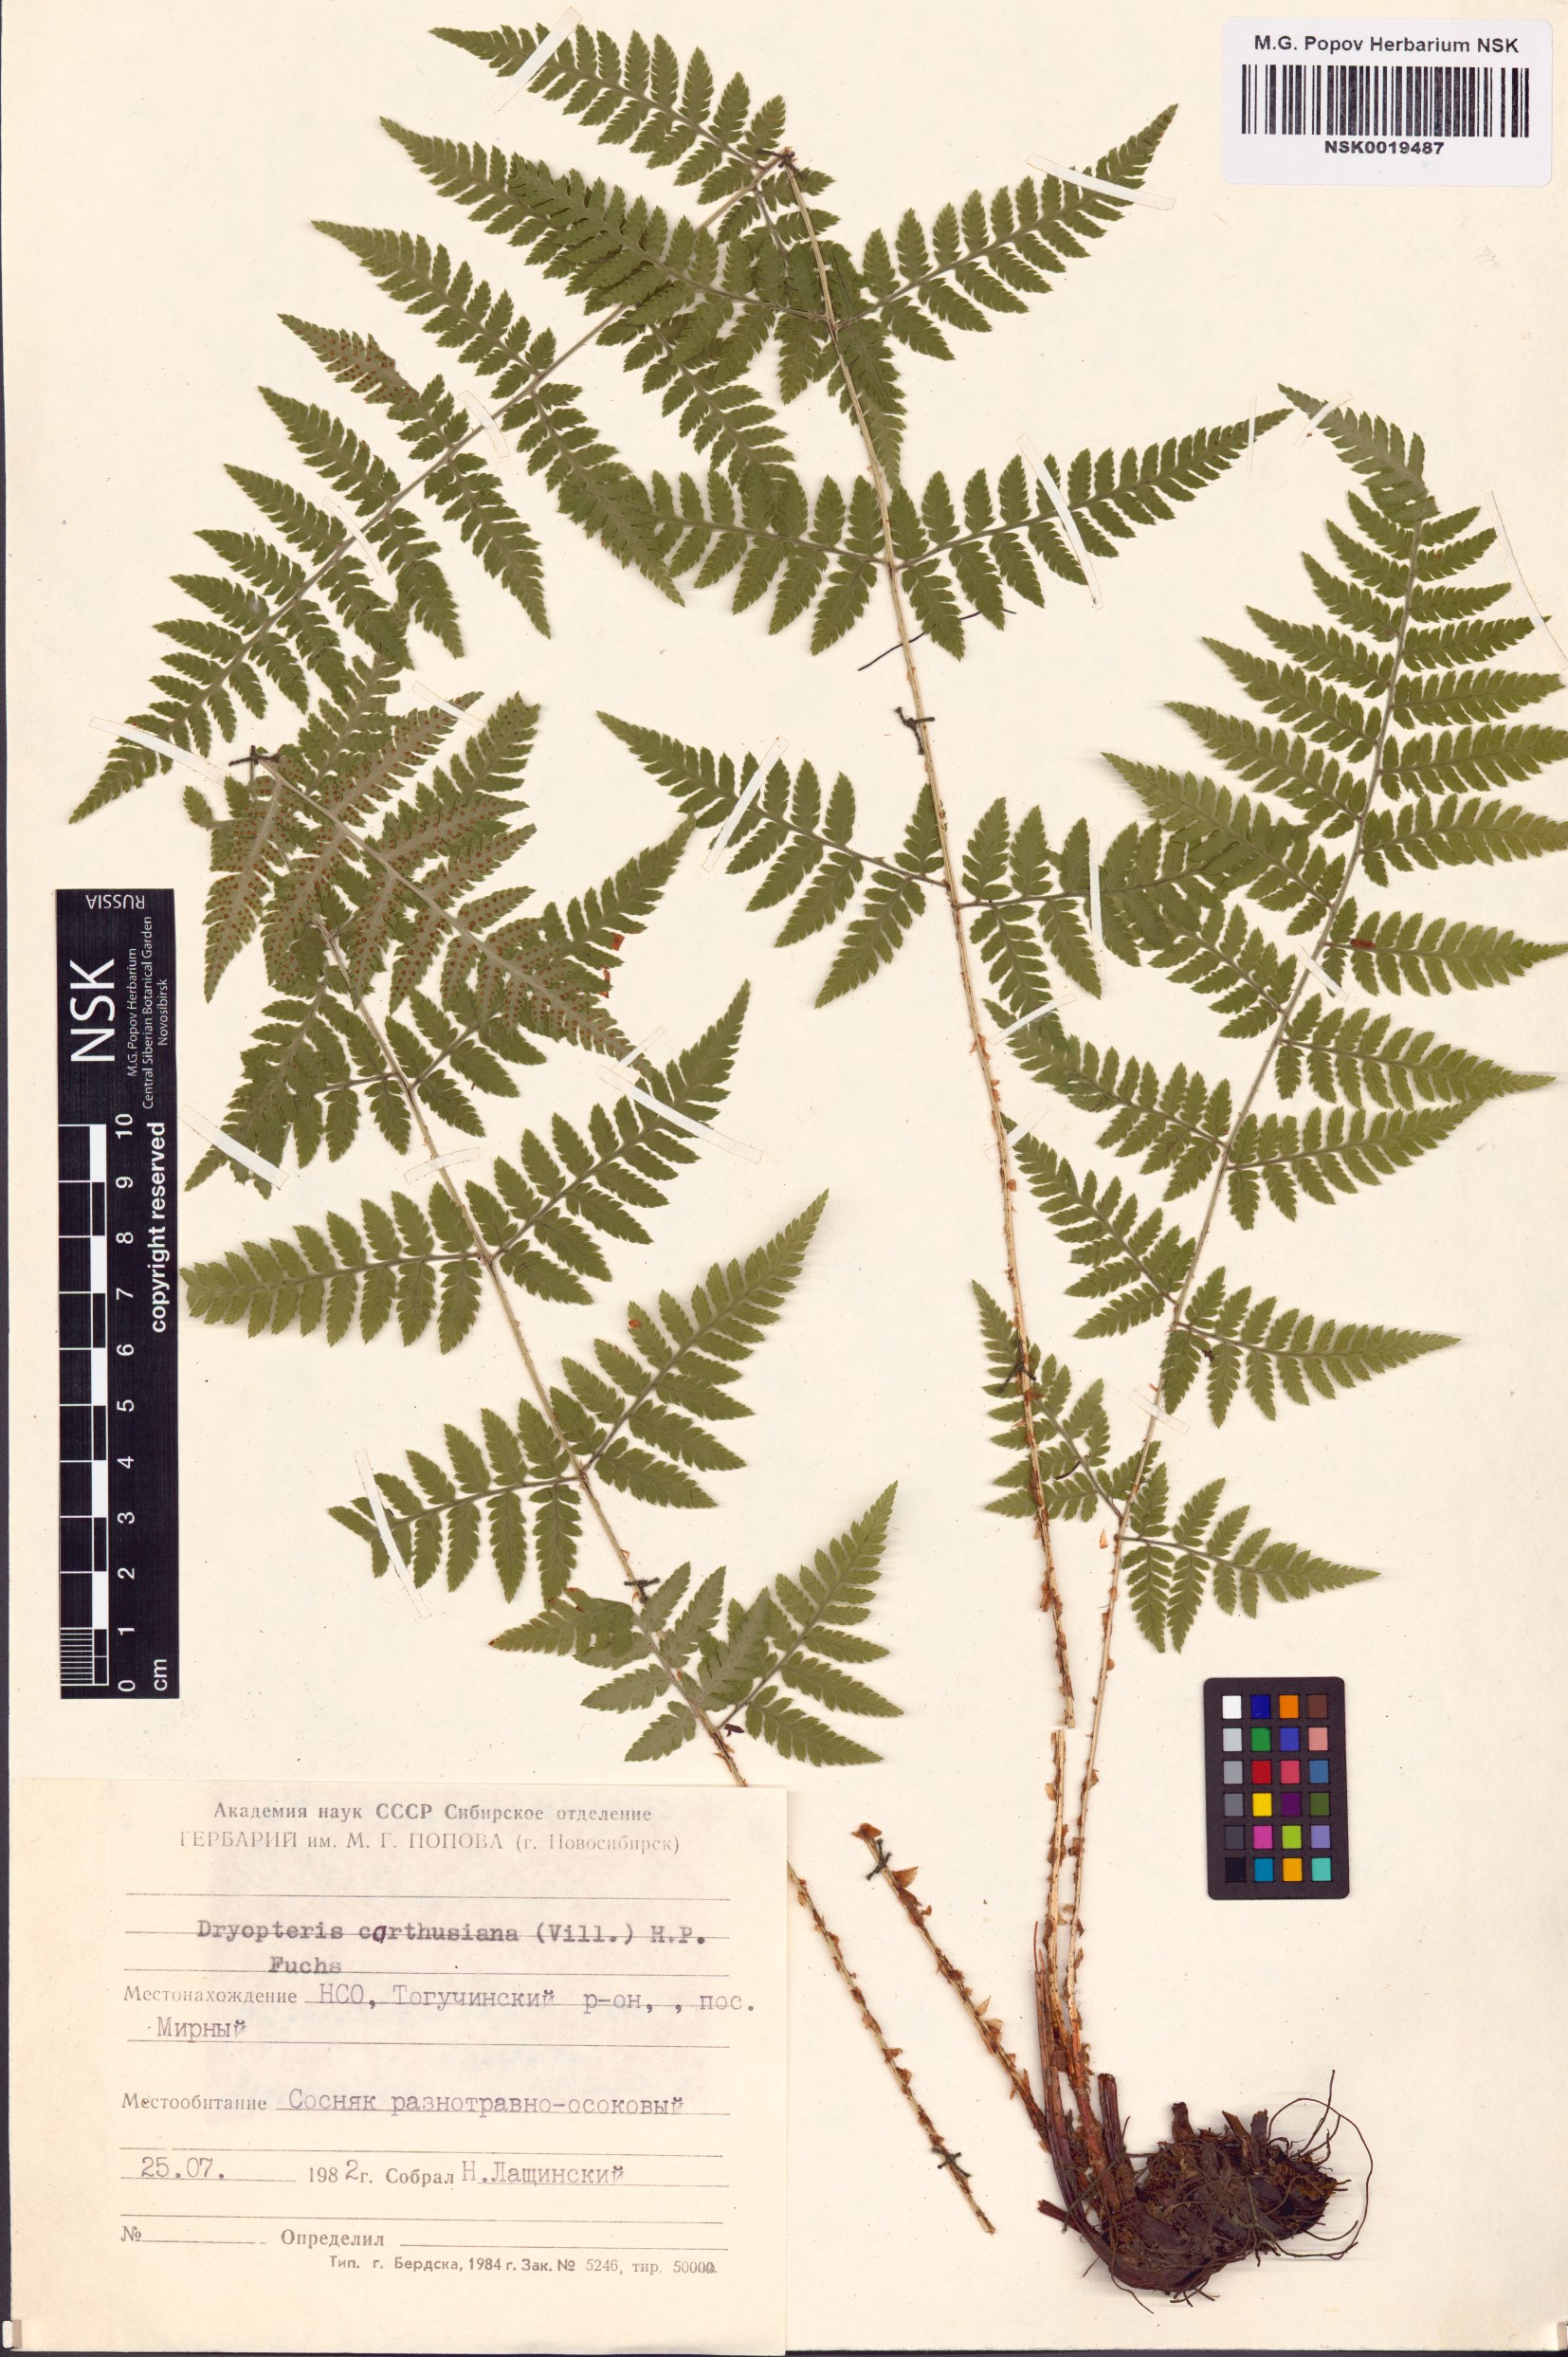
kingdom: Plantae
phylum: Tracheophyta
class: Polypodiopsida
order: Polypodiales
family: Dryopteridaceae
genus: Dryopteris
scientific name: Dryopteris carthusiana
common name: Narrow buckler-fern
